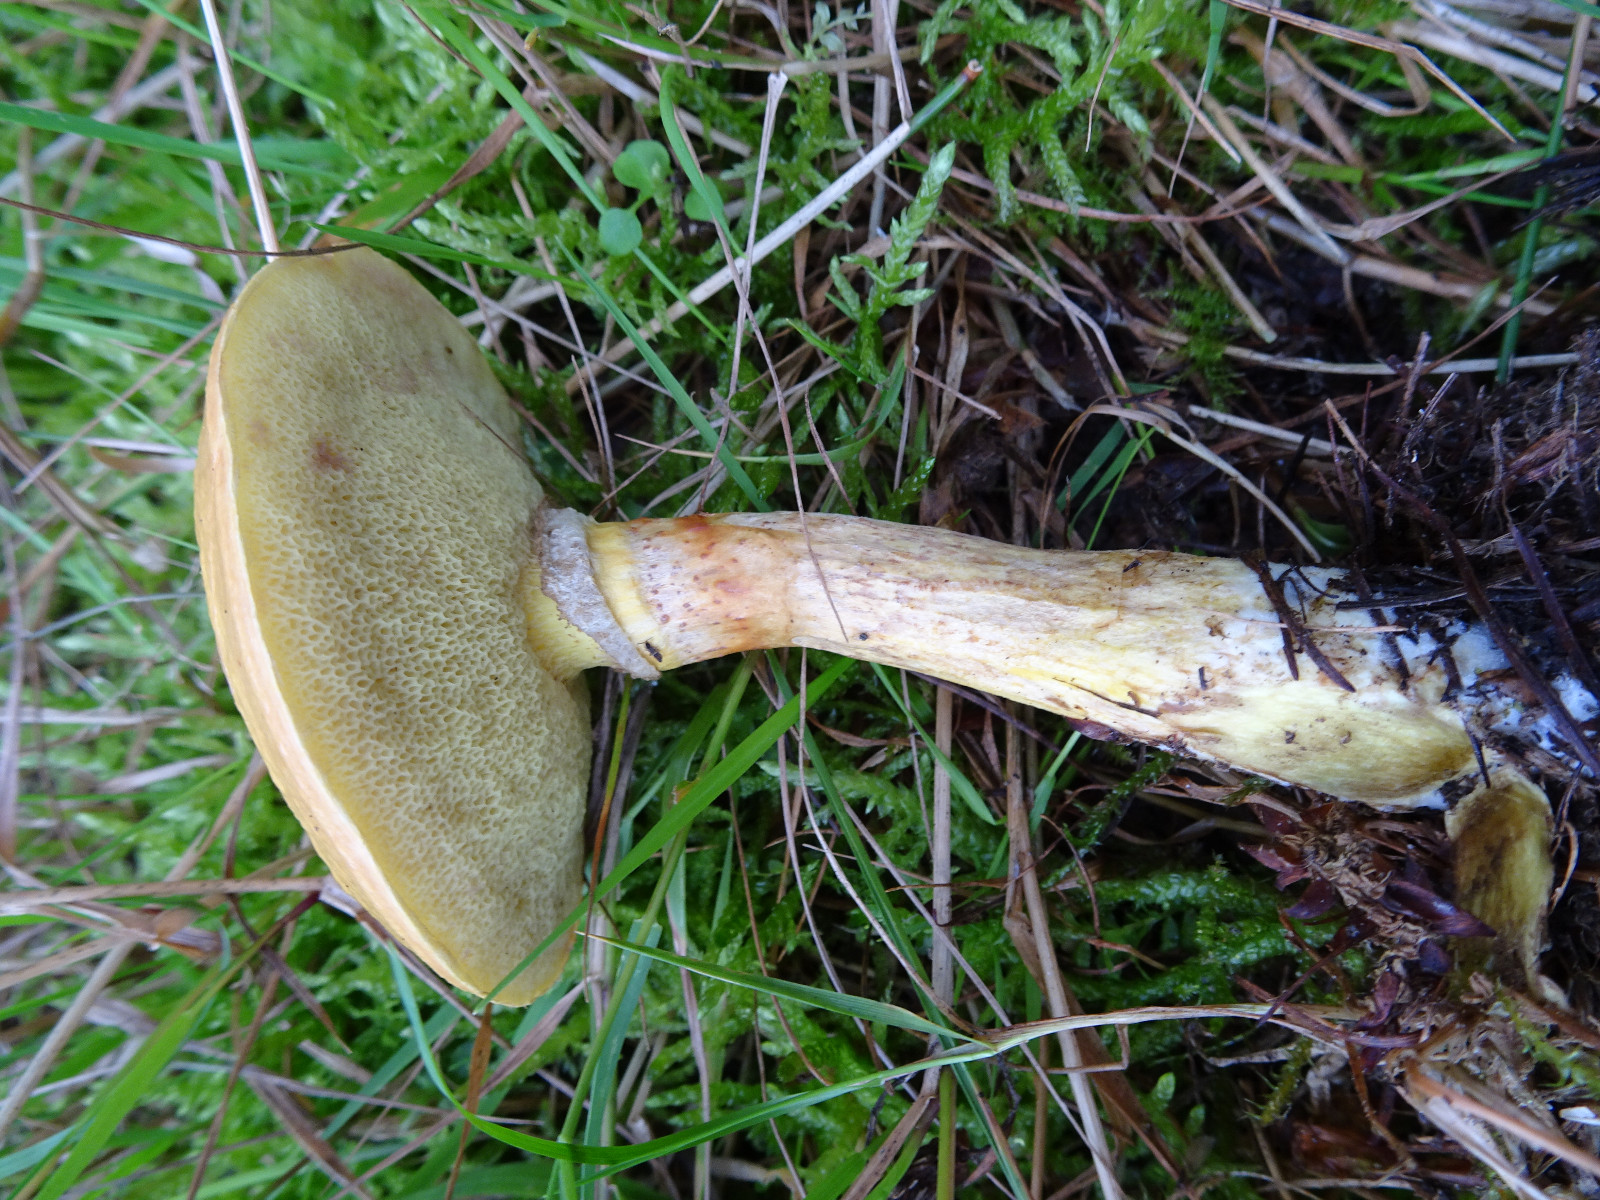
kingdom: Fungi
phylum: Basidiomycota
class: Agaricomycetes
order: Boletales
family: Suillaceae
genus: Suillus
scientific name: Suillus grevillei
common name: lærke-slimrørhat
